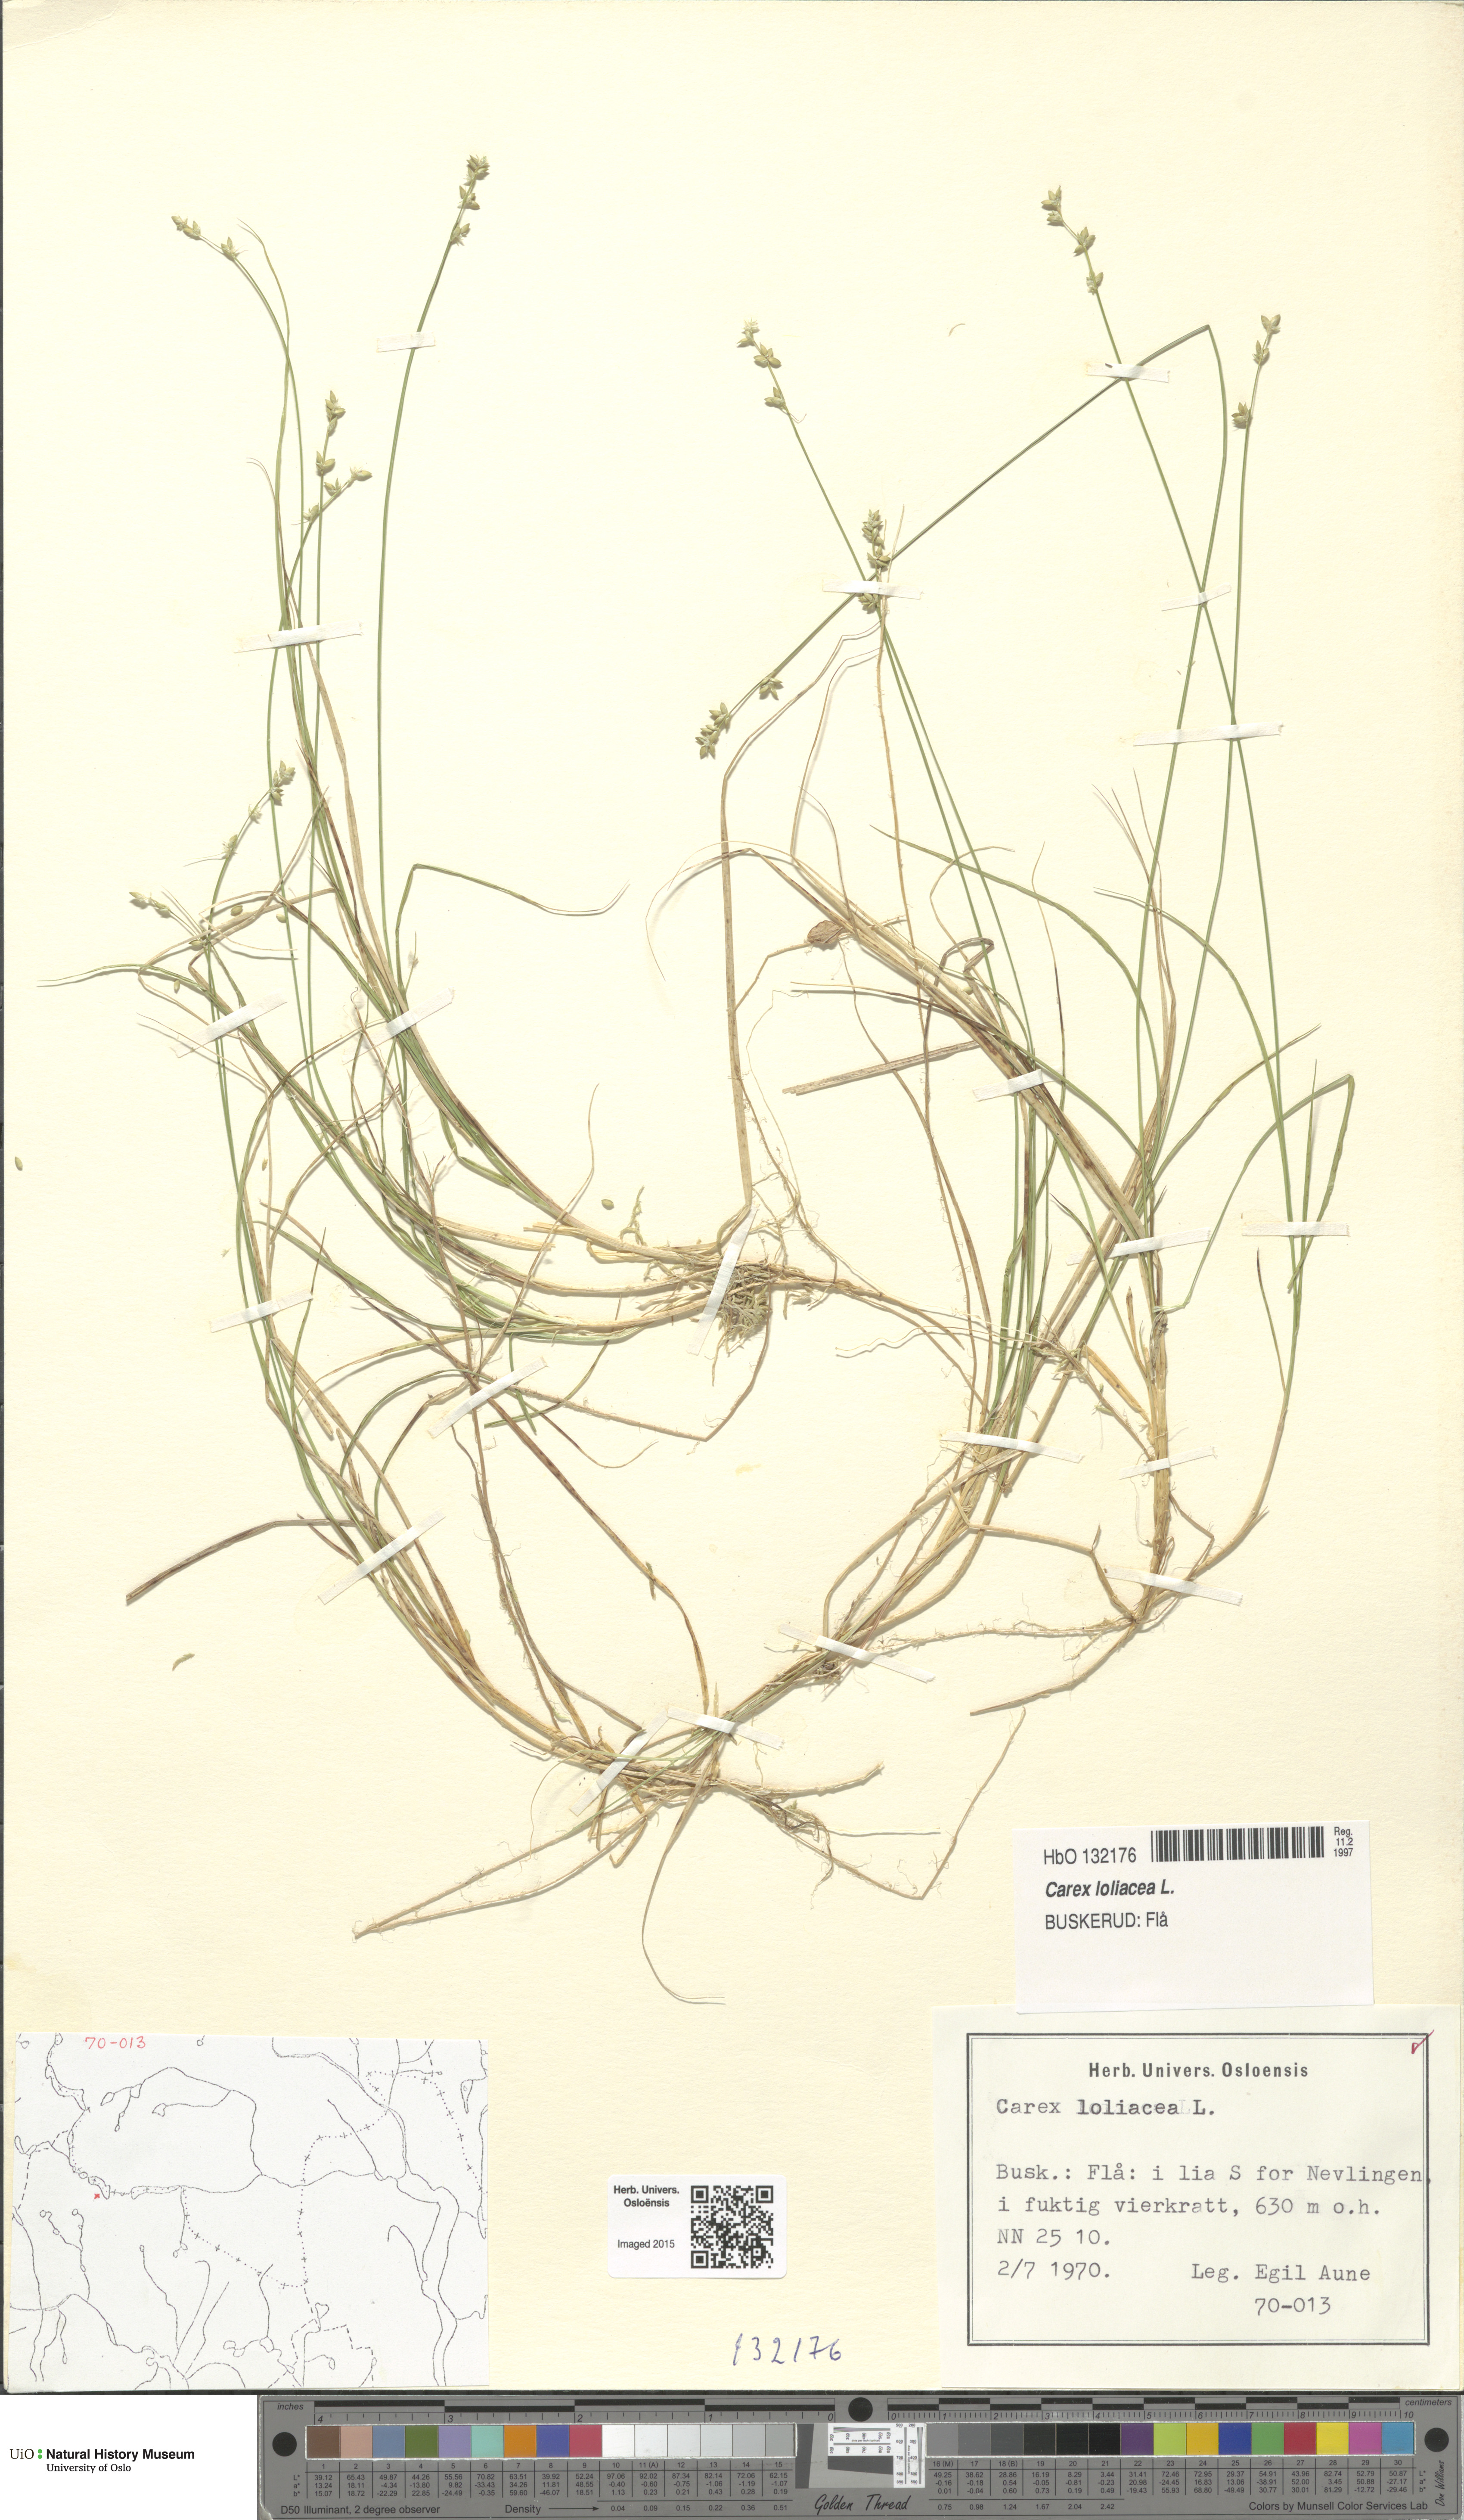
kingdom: Plantae
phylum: Tracheophyta
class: Liliopsida
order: Poales
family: Cyperaceae
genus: Carex
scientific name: Carex loliacea
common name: Ryegrass sedge
